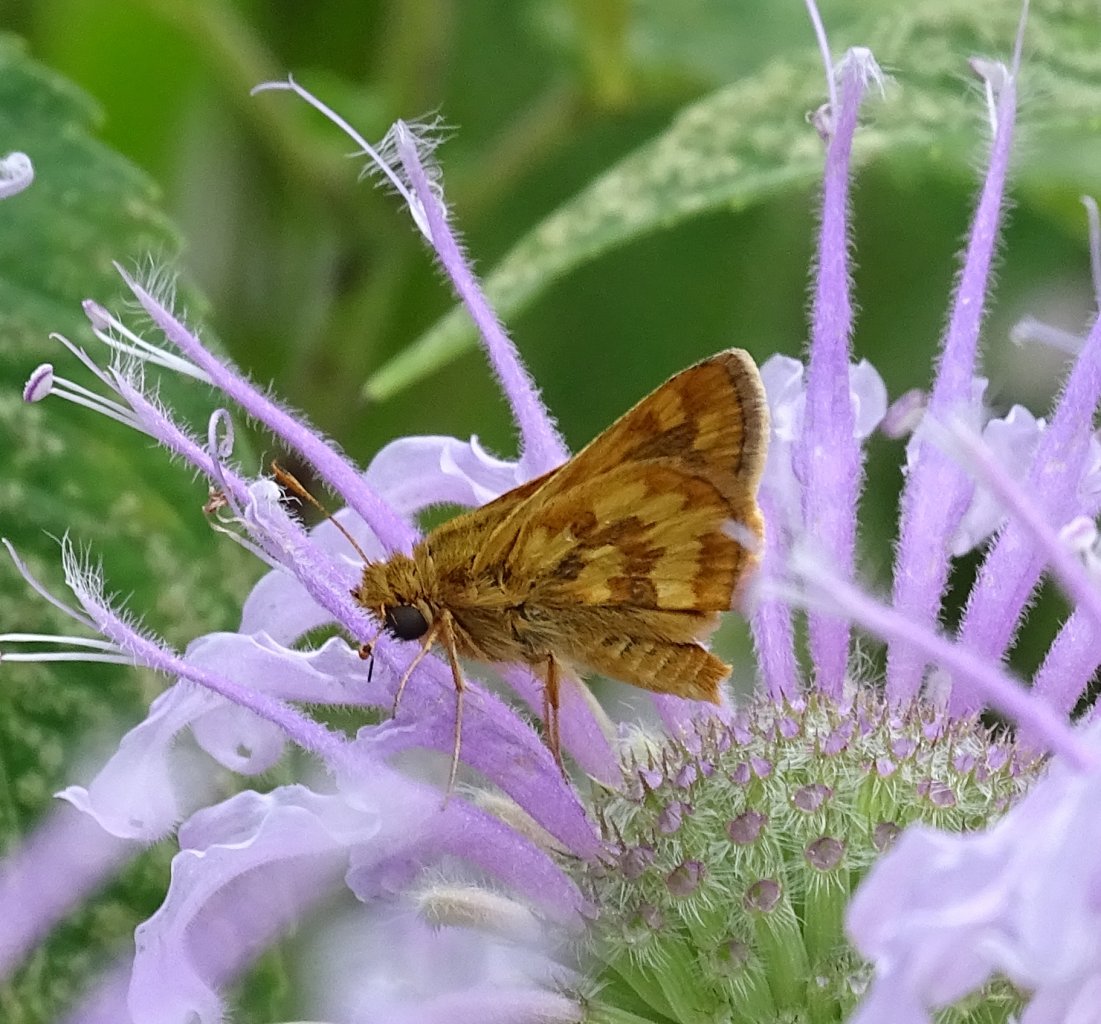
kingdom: Animalia
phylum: Arthropoda
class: Insecta
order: Lepidoptera
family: Hesperiidae
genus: Polites
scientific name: Polites coras
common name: Peck's Skipper
